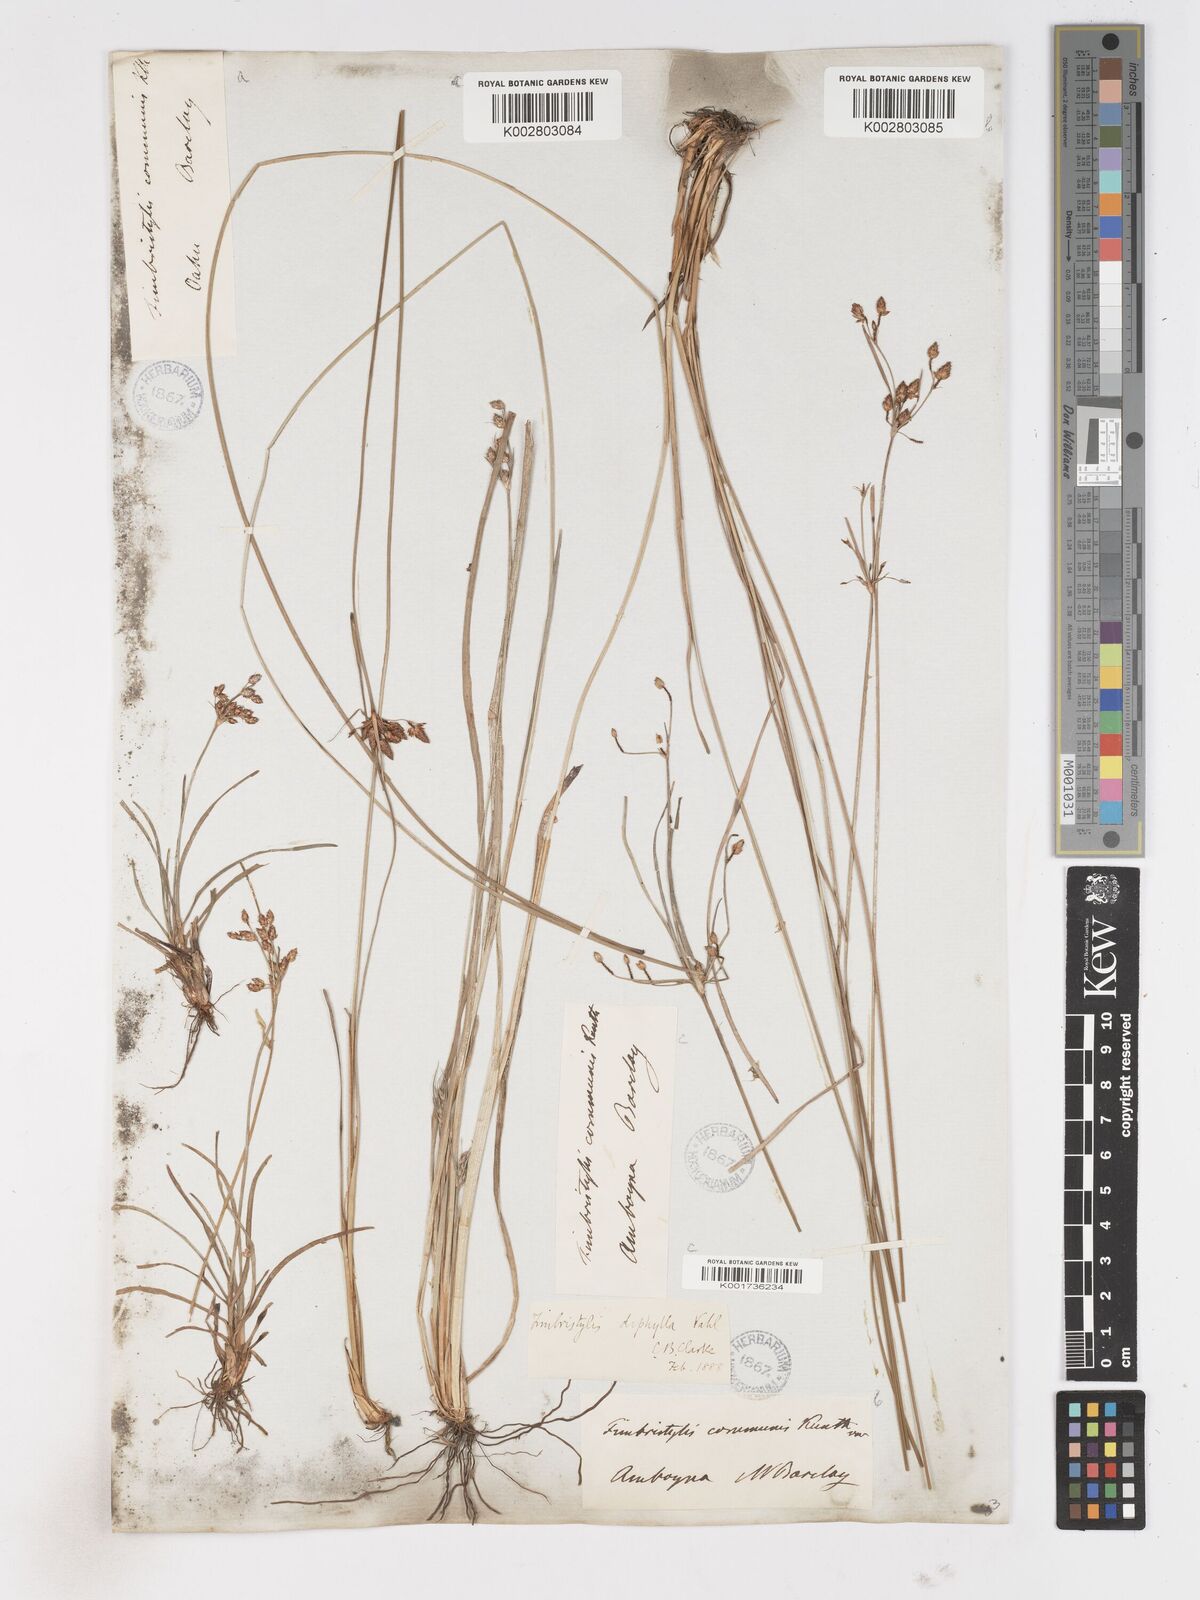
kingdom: Plantae
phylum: Tracheophyta
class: Liliopsida
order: Poales
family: Cyperaceae
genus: Fimbristylis
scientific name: Fimbristylis dichotoma
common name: Forked fimbry
